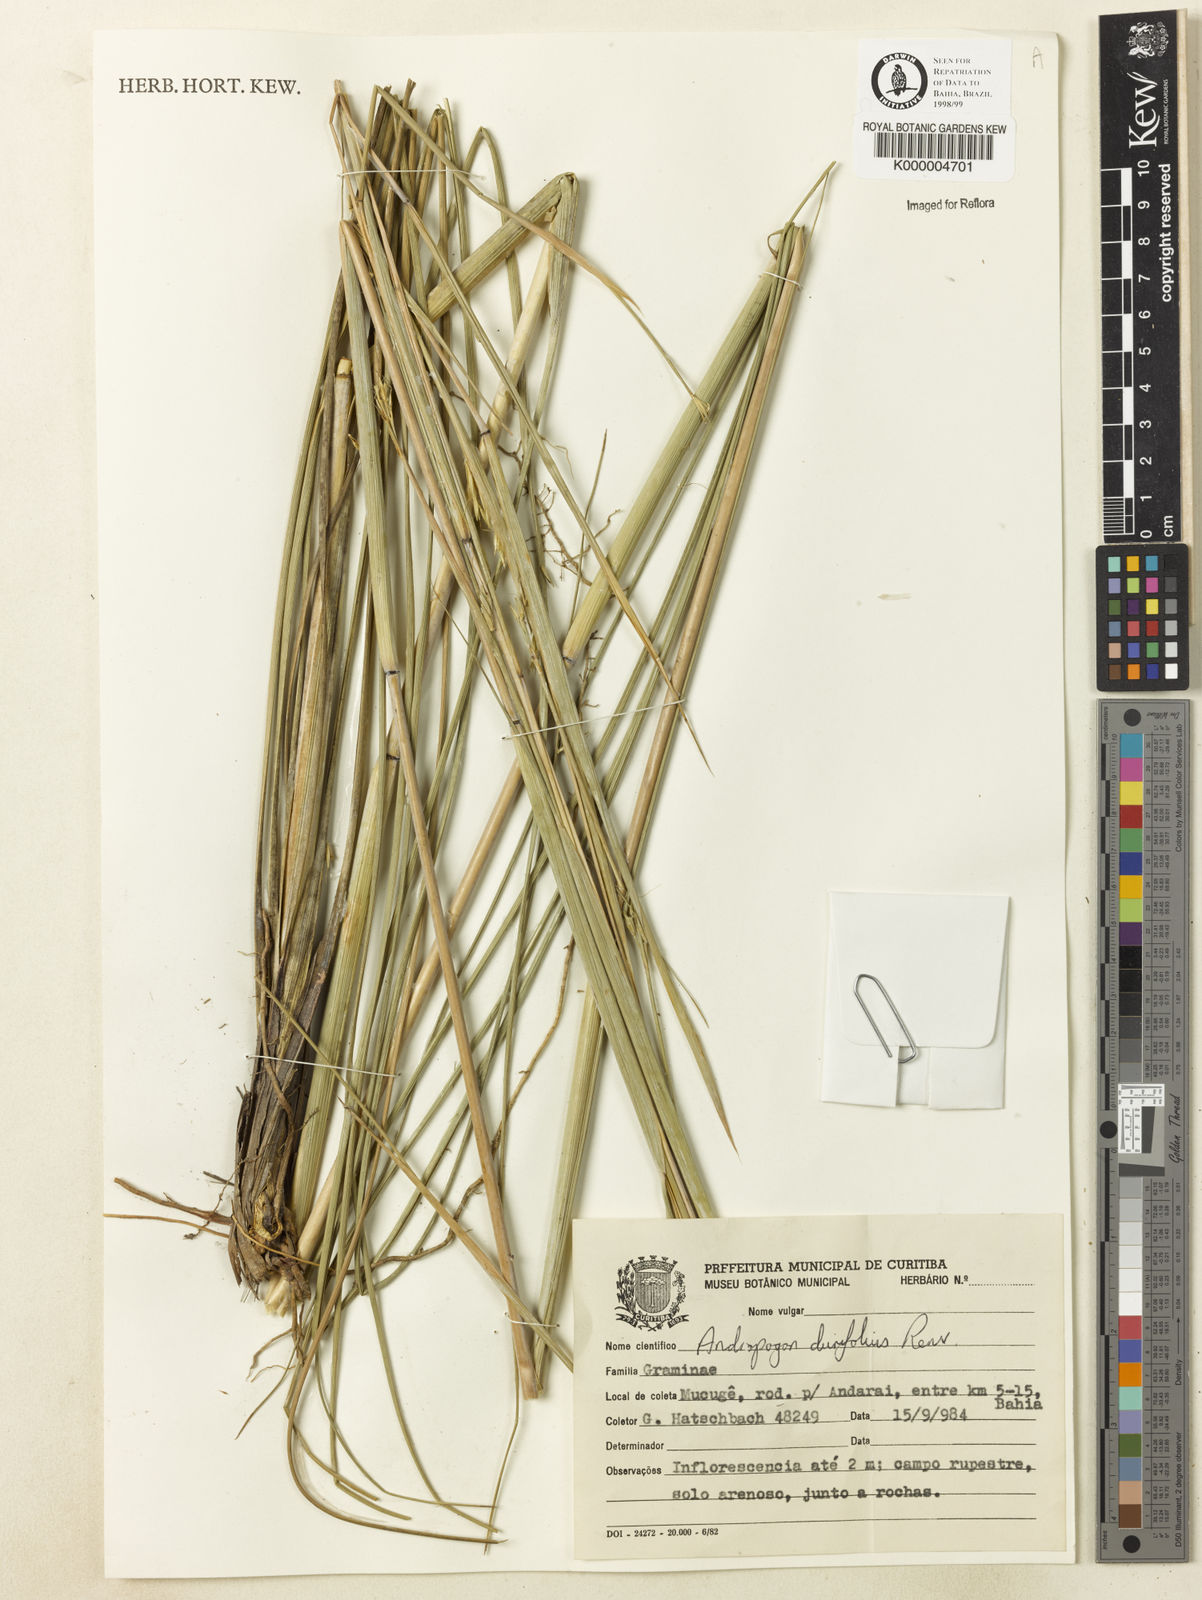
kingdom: Plantae
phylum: Tracheophyta
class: Liliopsida
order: Poales
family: Poaceae
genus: Andropogon
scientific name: Andropogon durifolius
